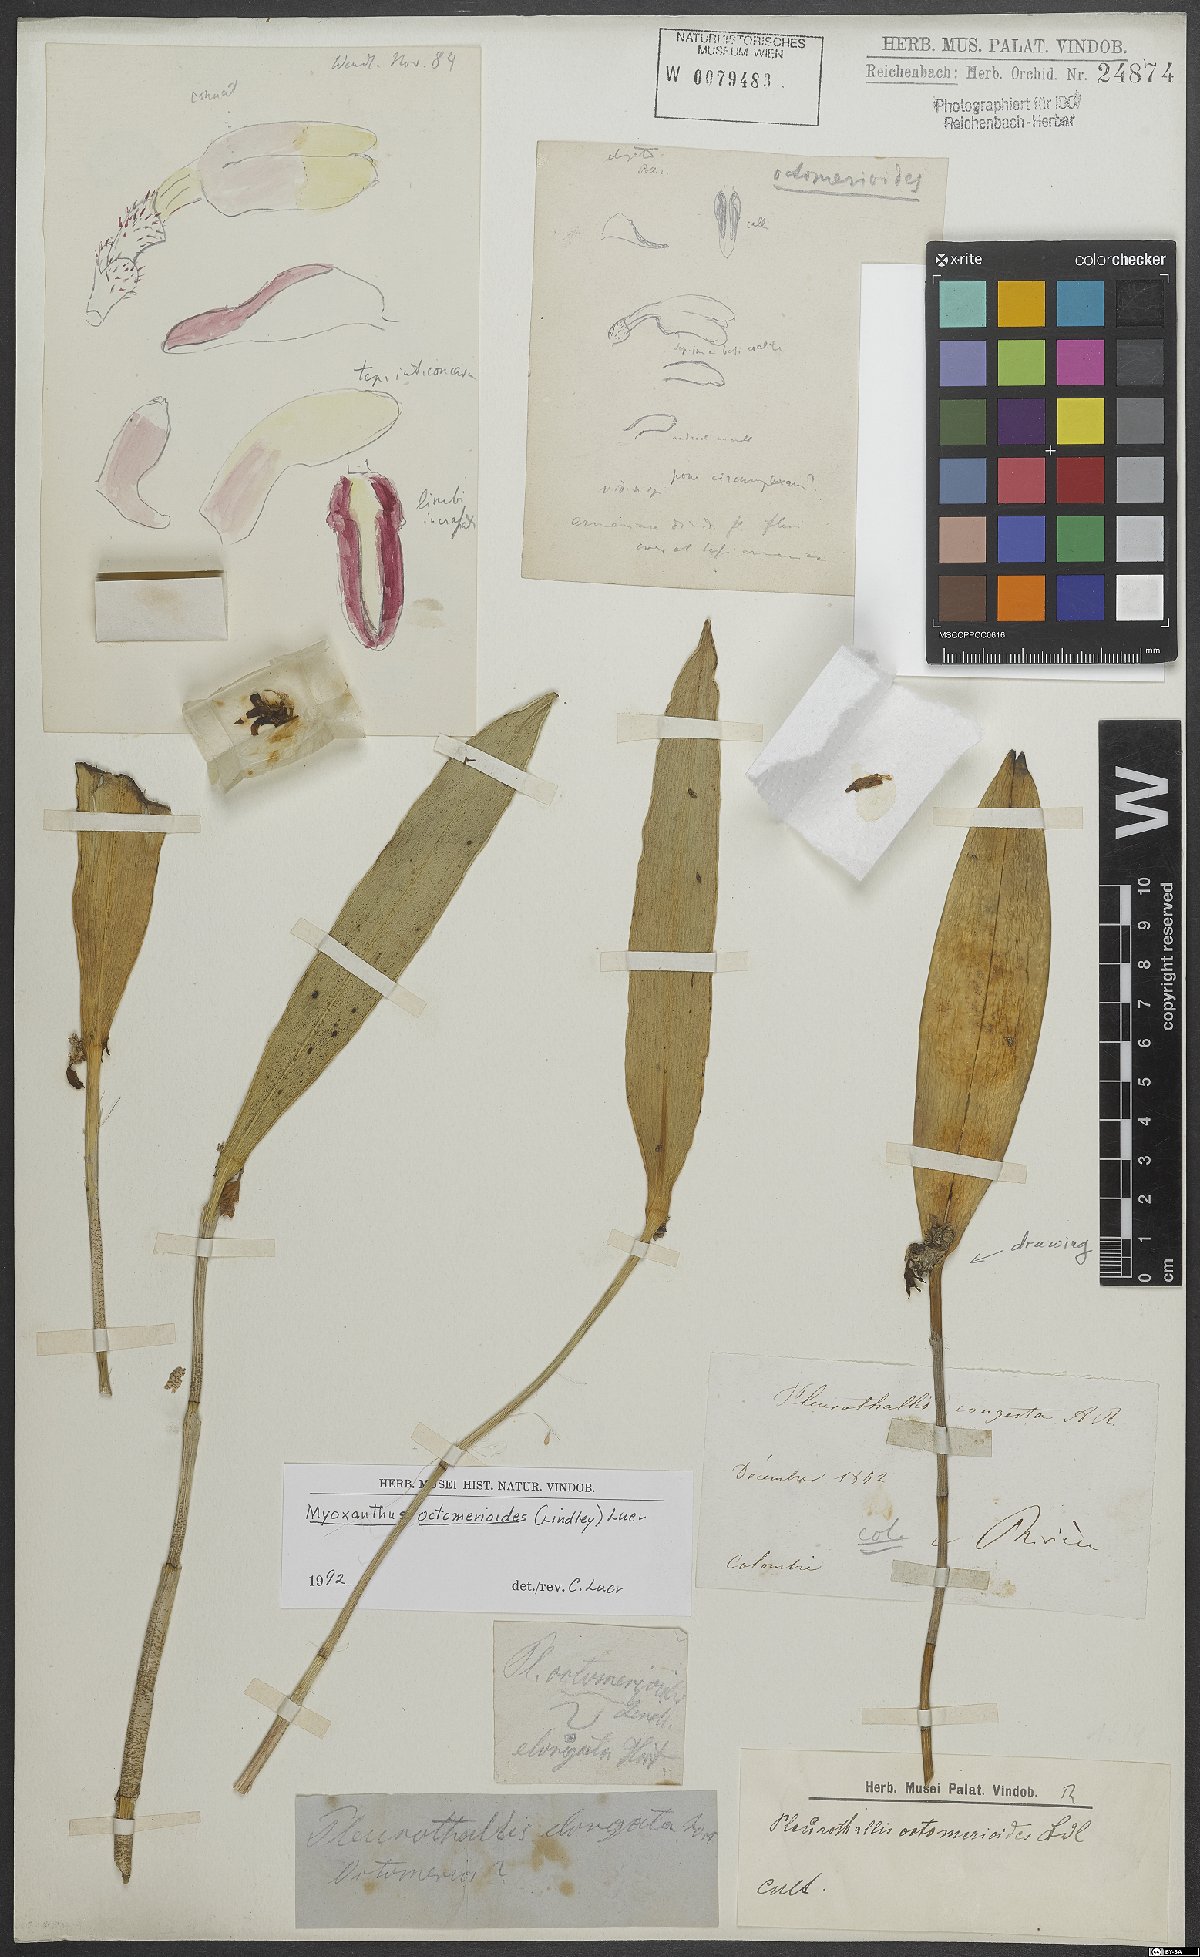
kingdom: Plantae
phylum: Tracheophyta
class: Liliopsida
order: Asparagales
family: Orchidaceae
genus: Myoxanthus
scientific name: Myoxanthus octomerioides
